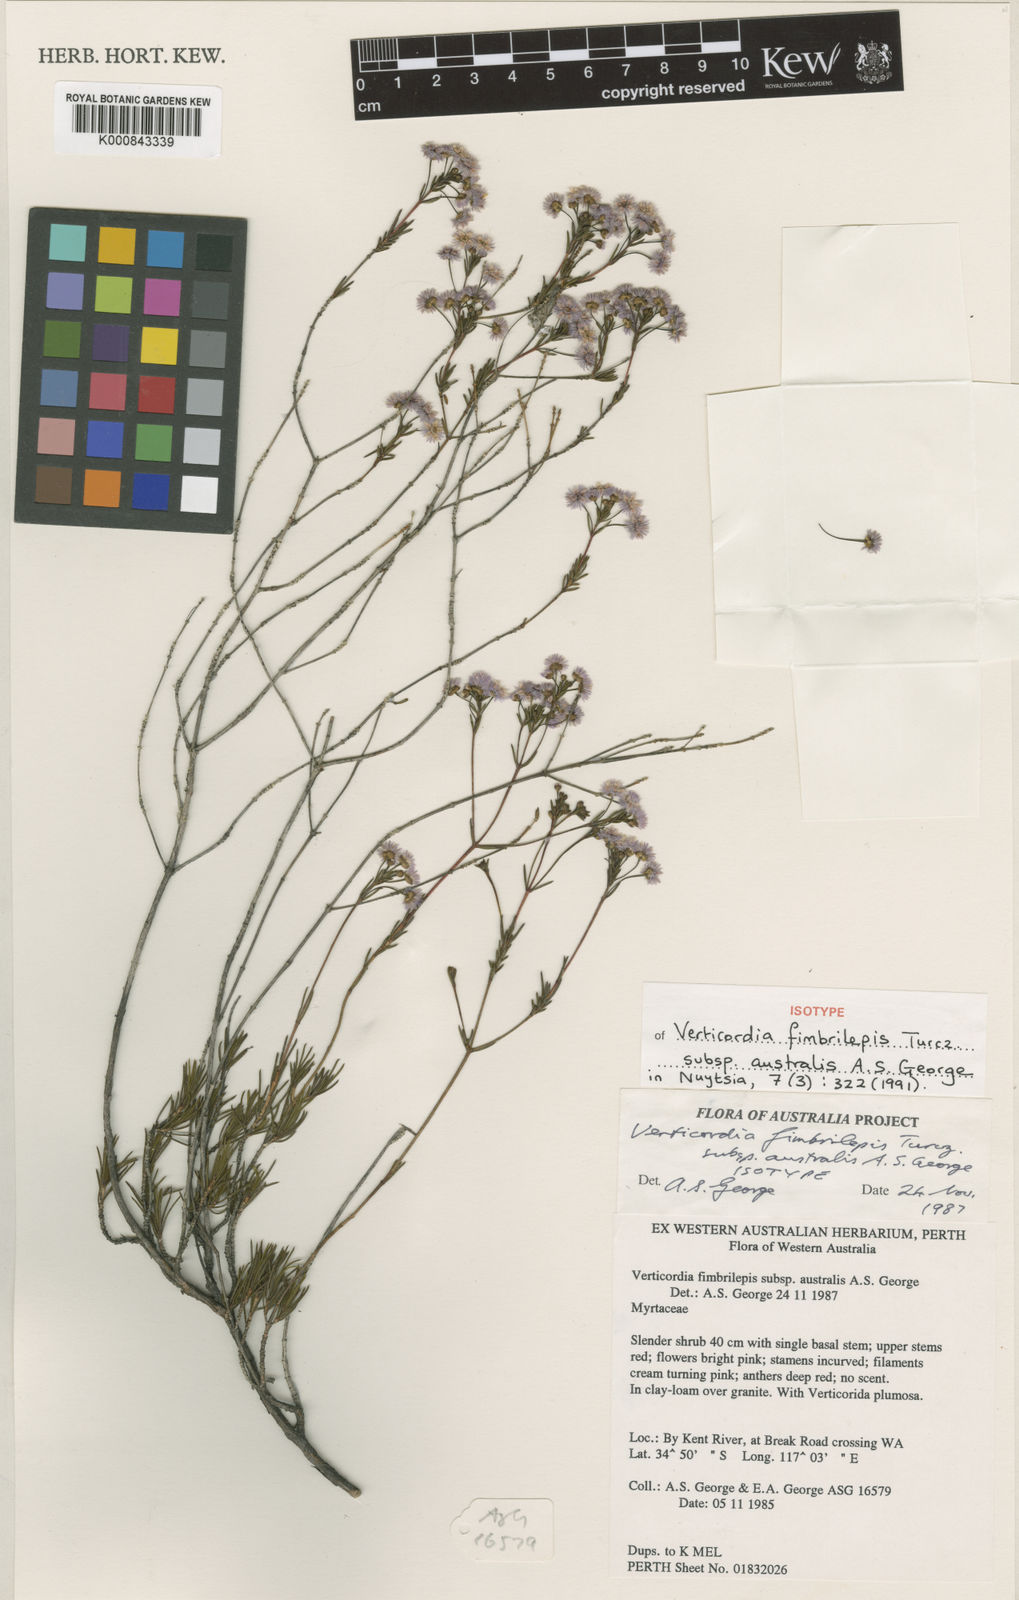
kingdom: Plantae
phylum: Tracheophyta
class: Magnoliopsida
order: Myrtales
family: Myrtaceae
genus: Verticordia
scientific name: Verticordia fimbrilepis
